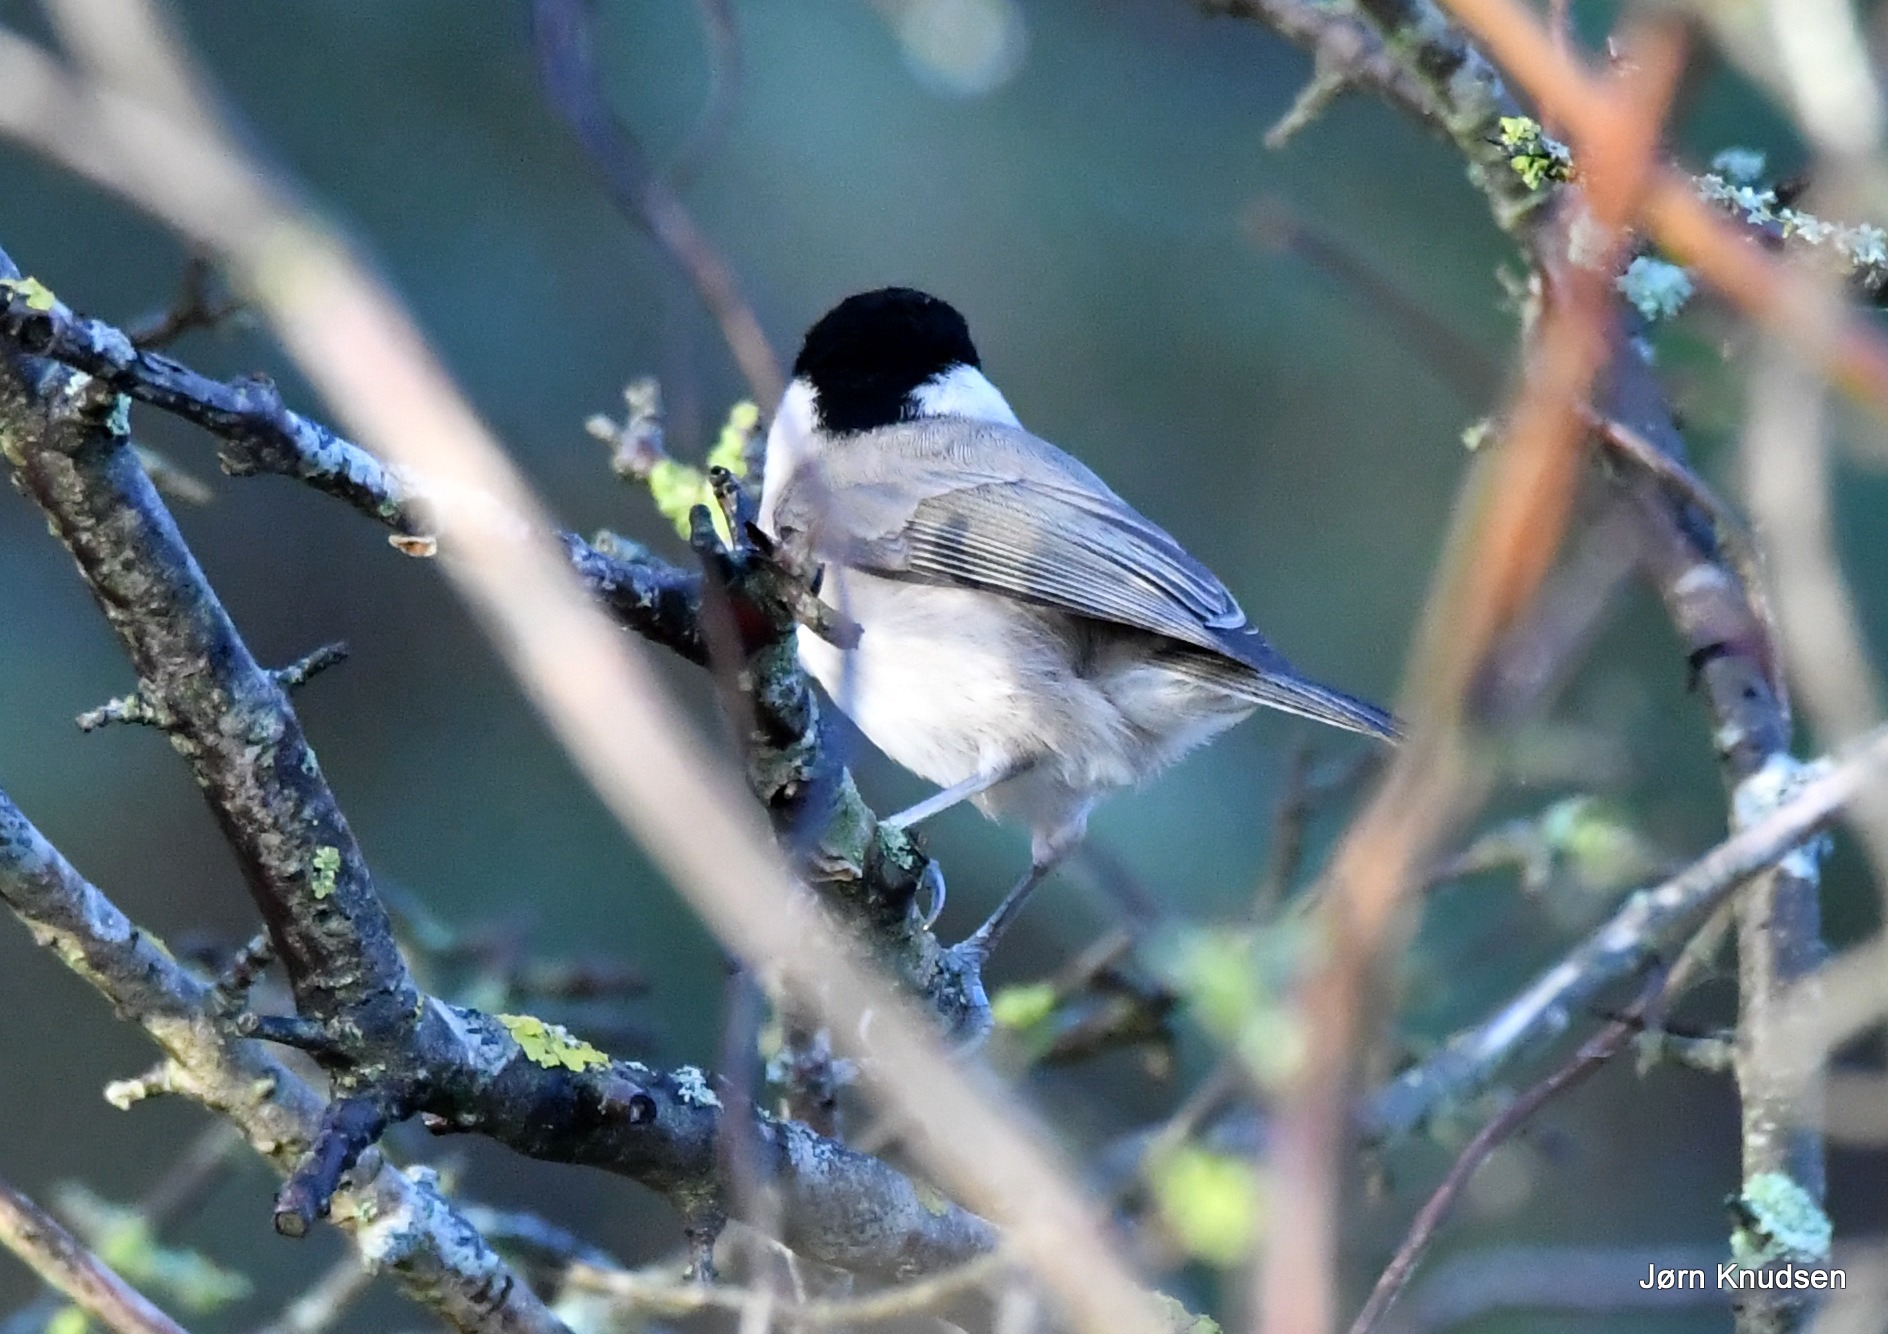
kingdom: Animalia
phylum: Chordata
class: Aves
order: Passeriformes
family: Paridae
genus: Poecile
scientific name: Poecile palustris
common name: Sumpmejse
